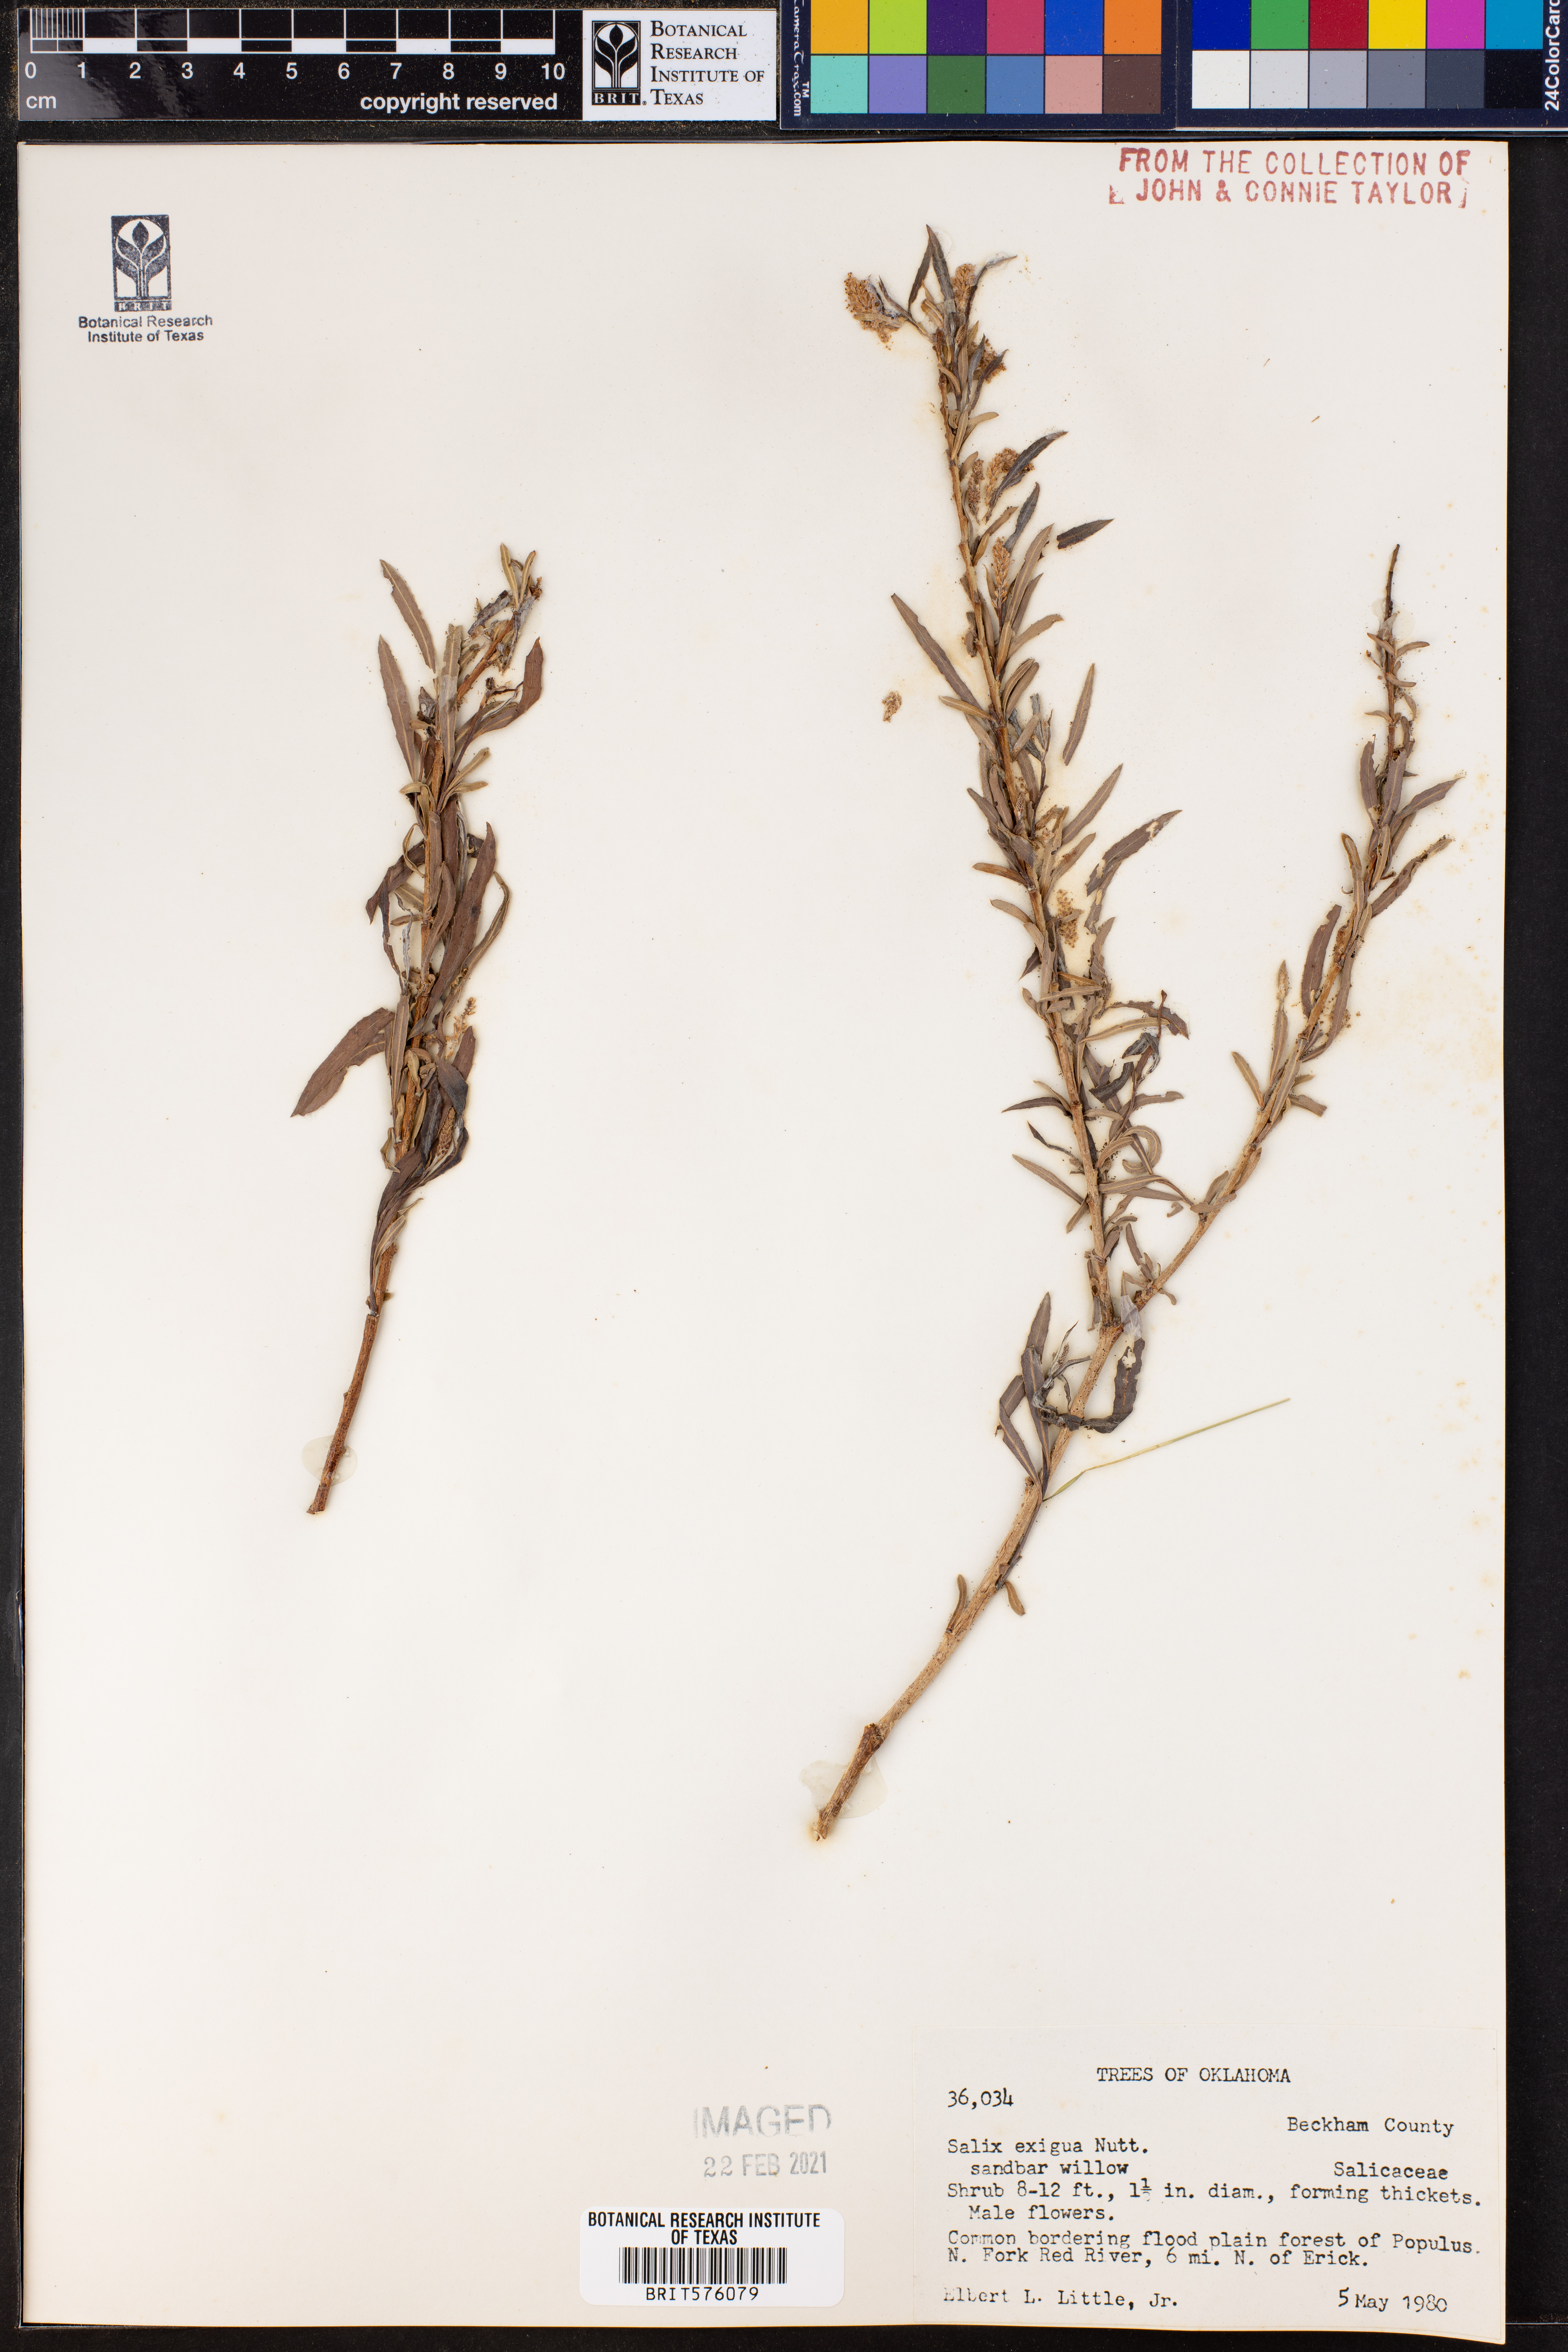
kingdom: Plantae
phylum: Tracheophyta
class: Magnoliopsida
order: Malpighiales
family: Salicaceae
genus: Salix
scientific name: Salix exigua
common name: Coyote willow
